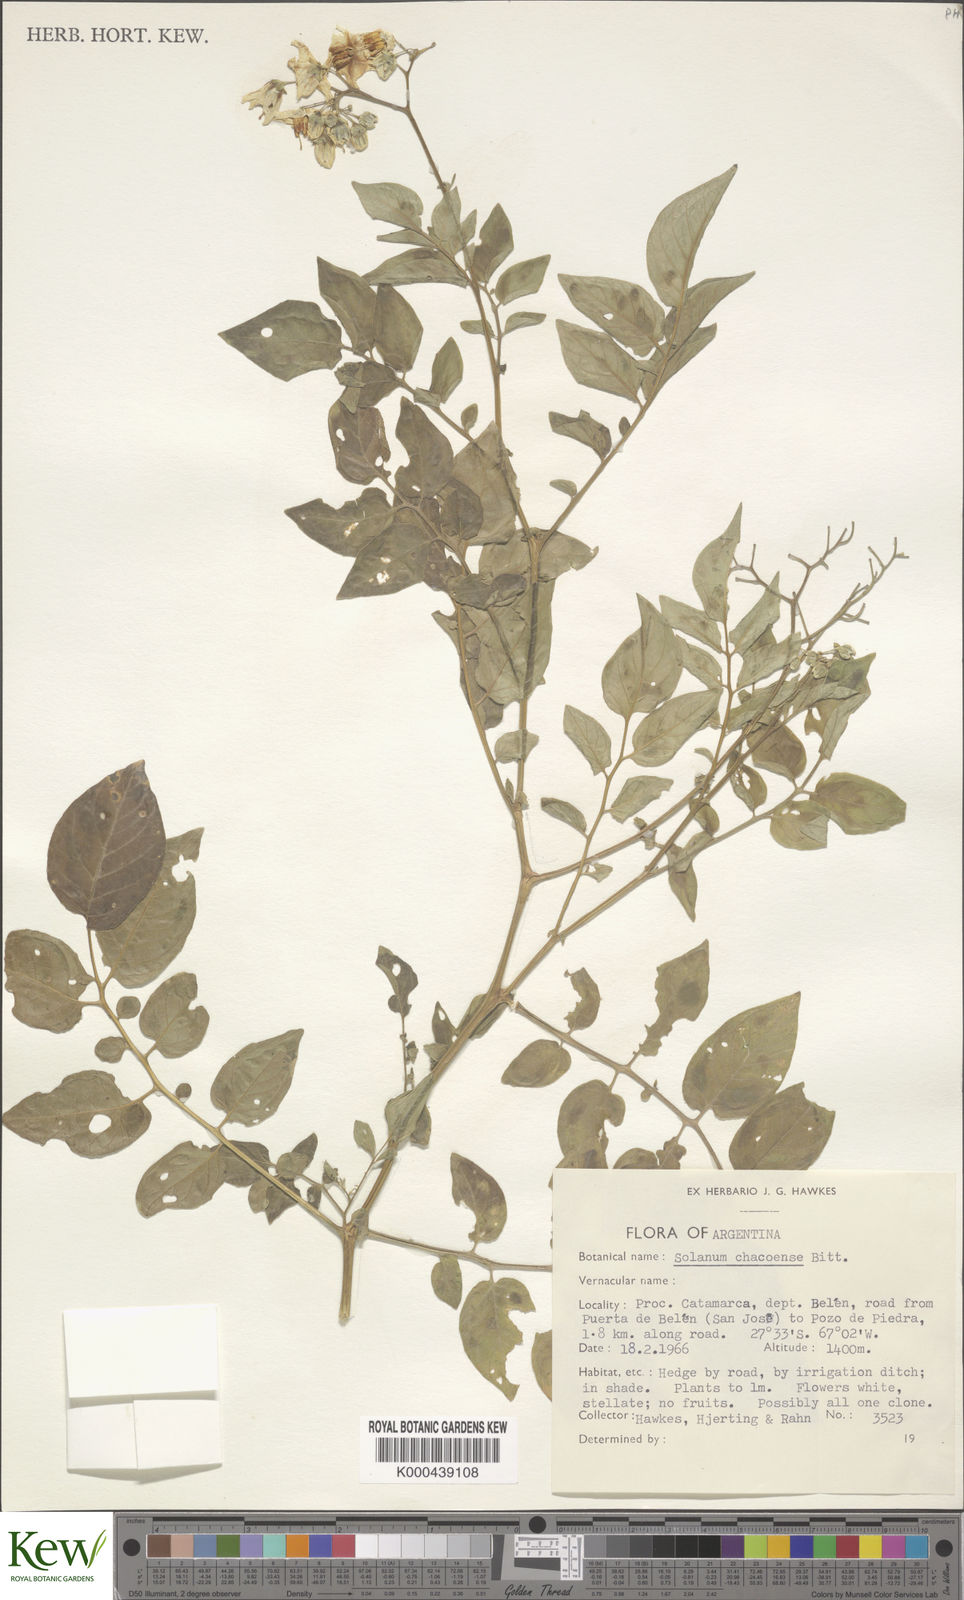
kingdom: Plantae
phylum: Tracheophyta
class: Magnoliopsida
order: Solanales
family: Solanaceae
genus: Solanum
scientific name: Solanum chacoense
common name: Chaco potato
